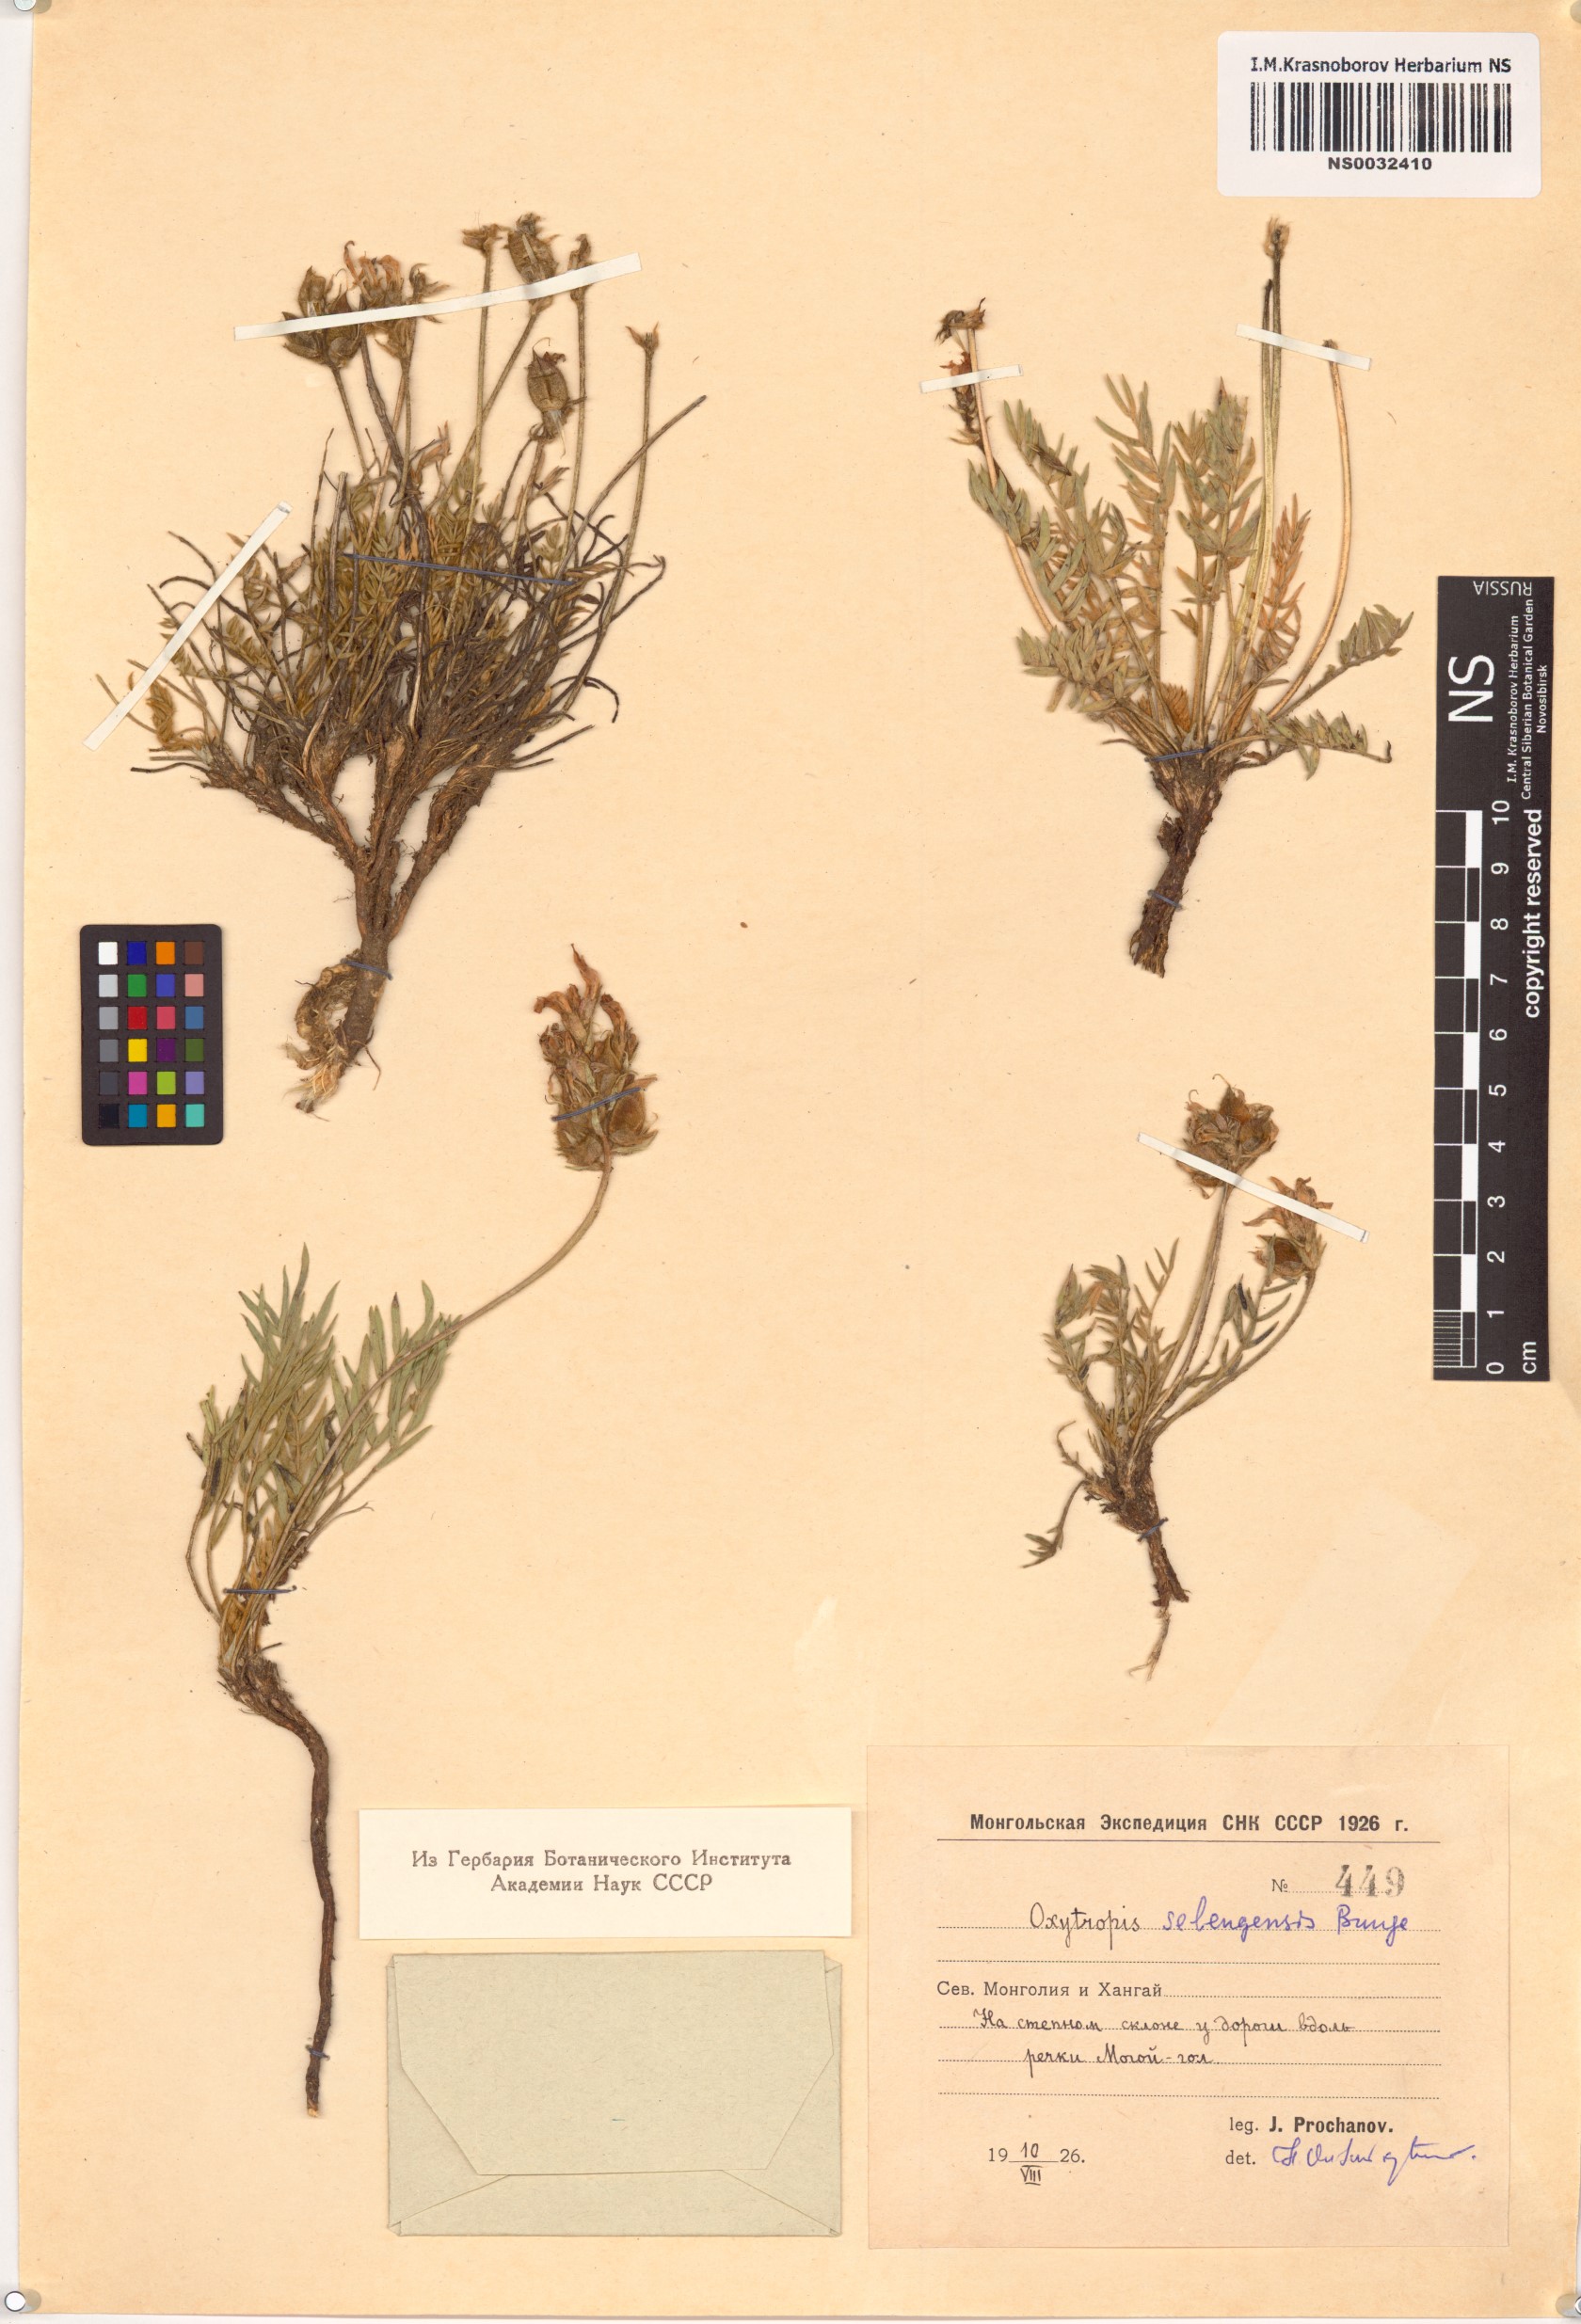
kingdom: Plantae
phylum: Tracheophyta
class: Magnoliopsida
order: Fabales
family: Fabaceae
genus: Oxytropis
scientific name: Oxytropis selengensis
